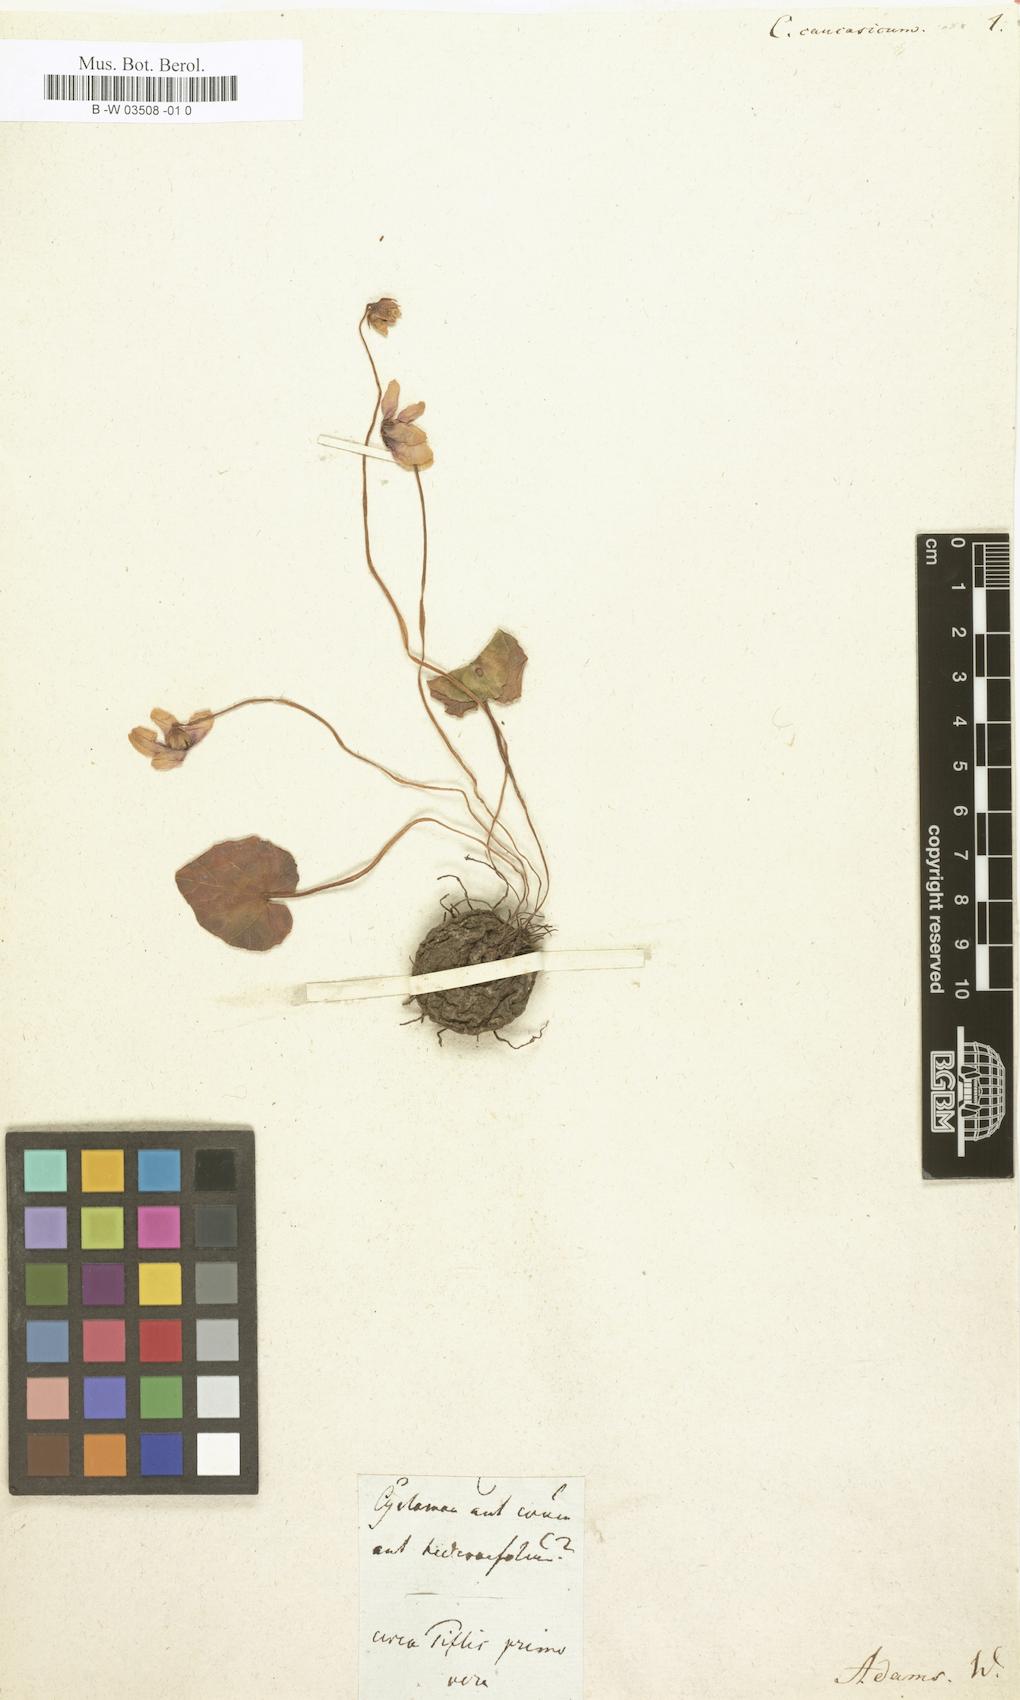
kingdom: Plantae
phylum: Tracheophyta
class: Magnoliopsida
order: Ericales
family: Primulaceae
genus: Cyclamen
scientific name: Cyclamen coum
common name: Eastern sowbread
